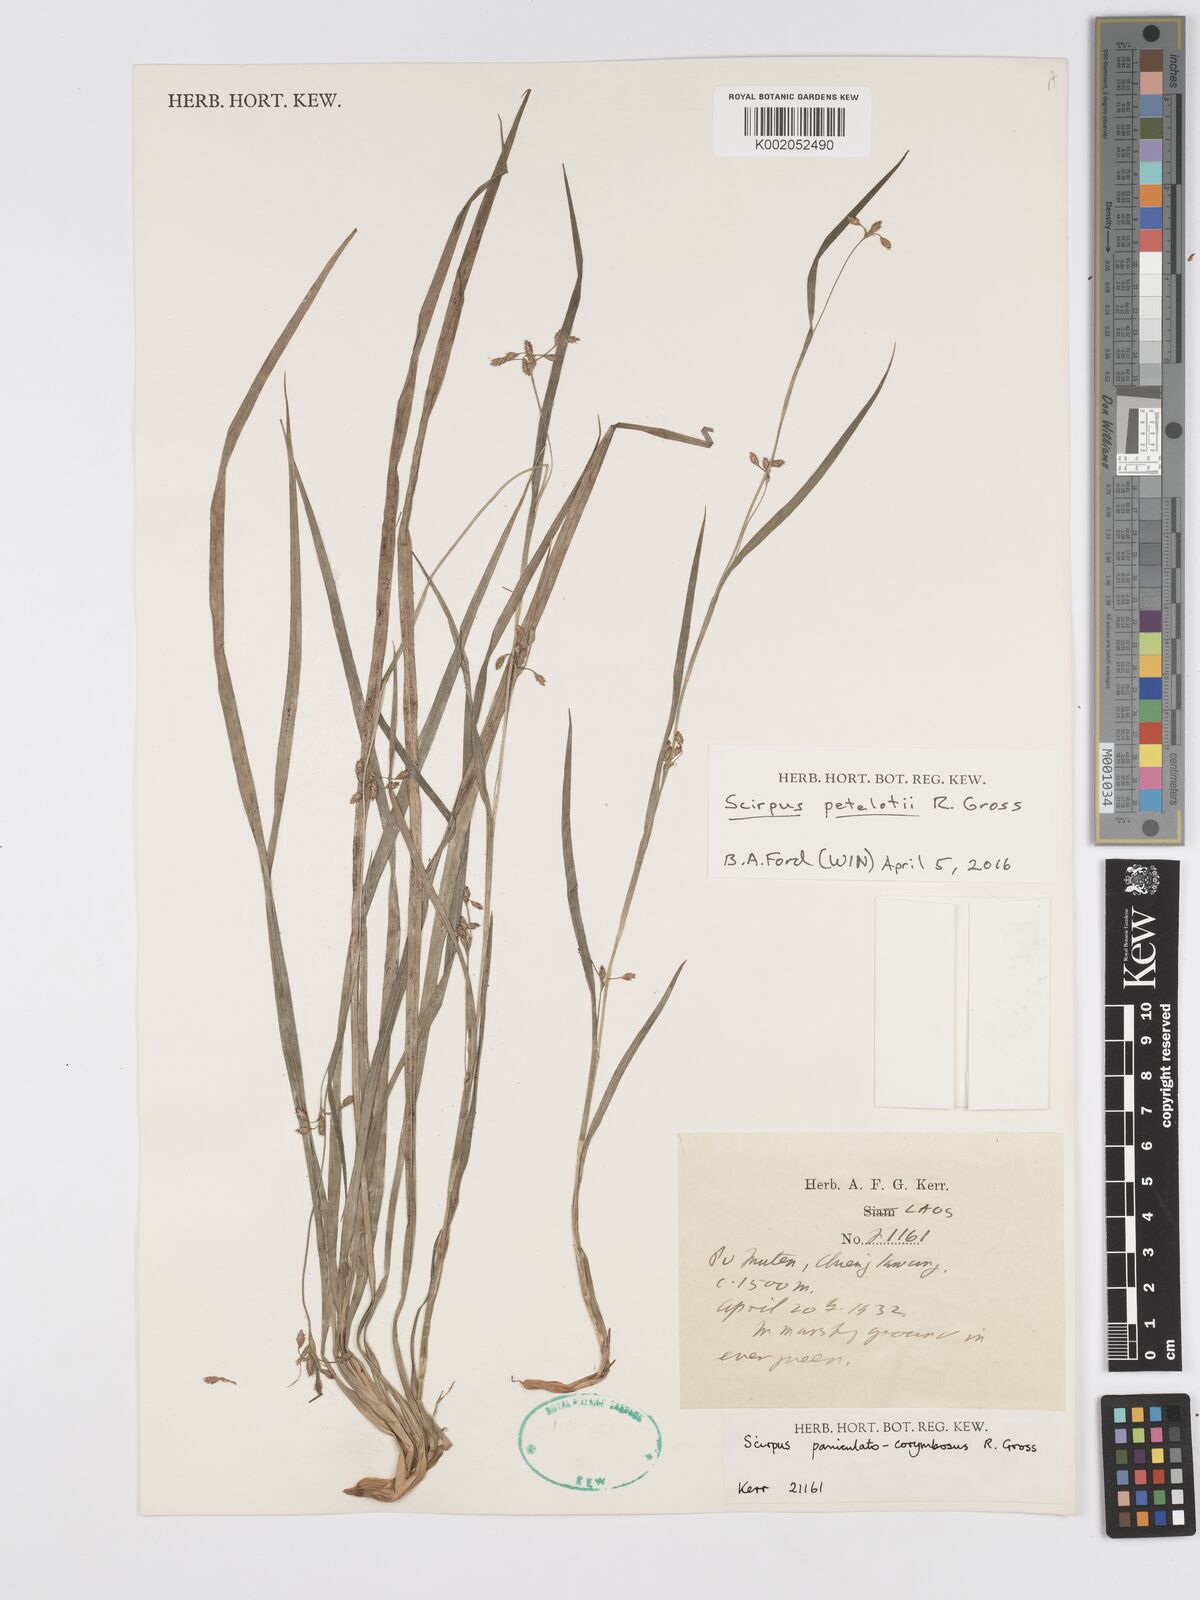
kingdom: Plantae
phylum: Tracheophyta
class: Liliopsida
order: Poales
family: Cyperaceae
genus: Scirpus
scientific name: Scirpus petelotii
